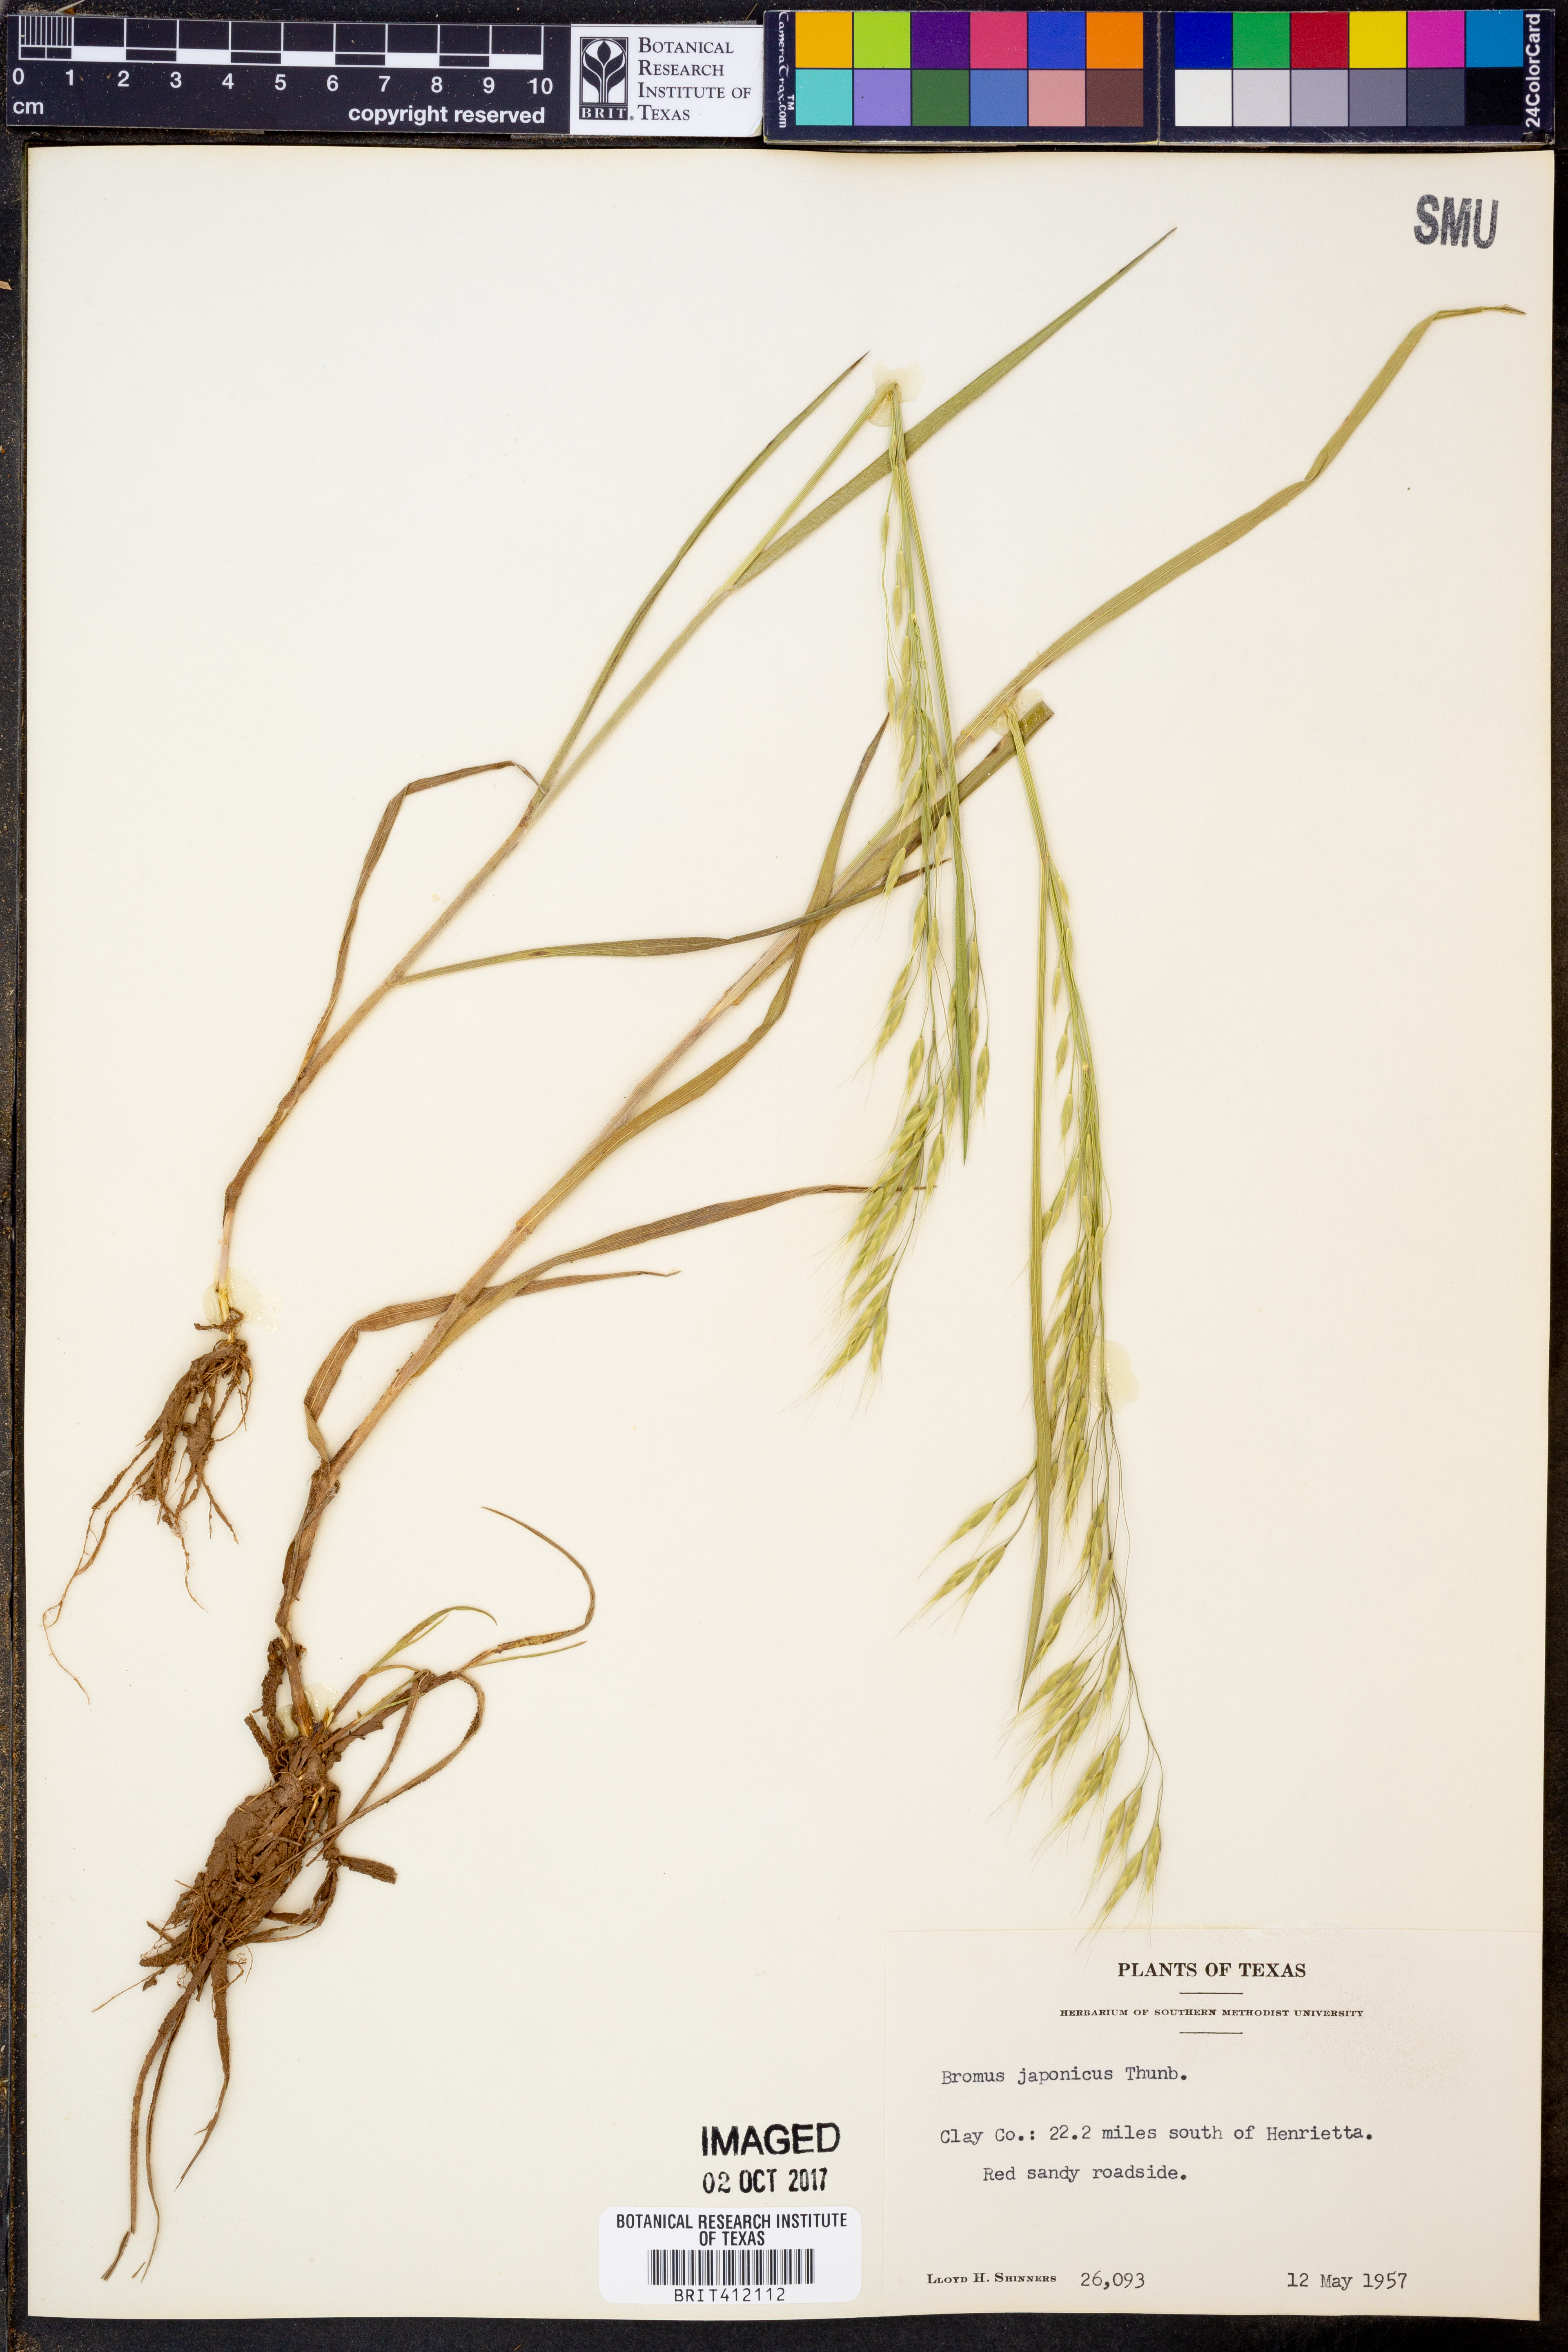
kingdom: Plantae
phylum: Tracheophyta
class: Liliopsida
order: Poales
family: Poaceae
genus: Bromus
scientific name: Bromus japonicus
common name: Japanese brome
